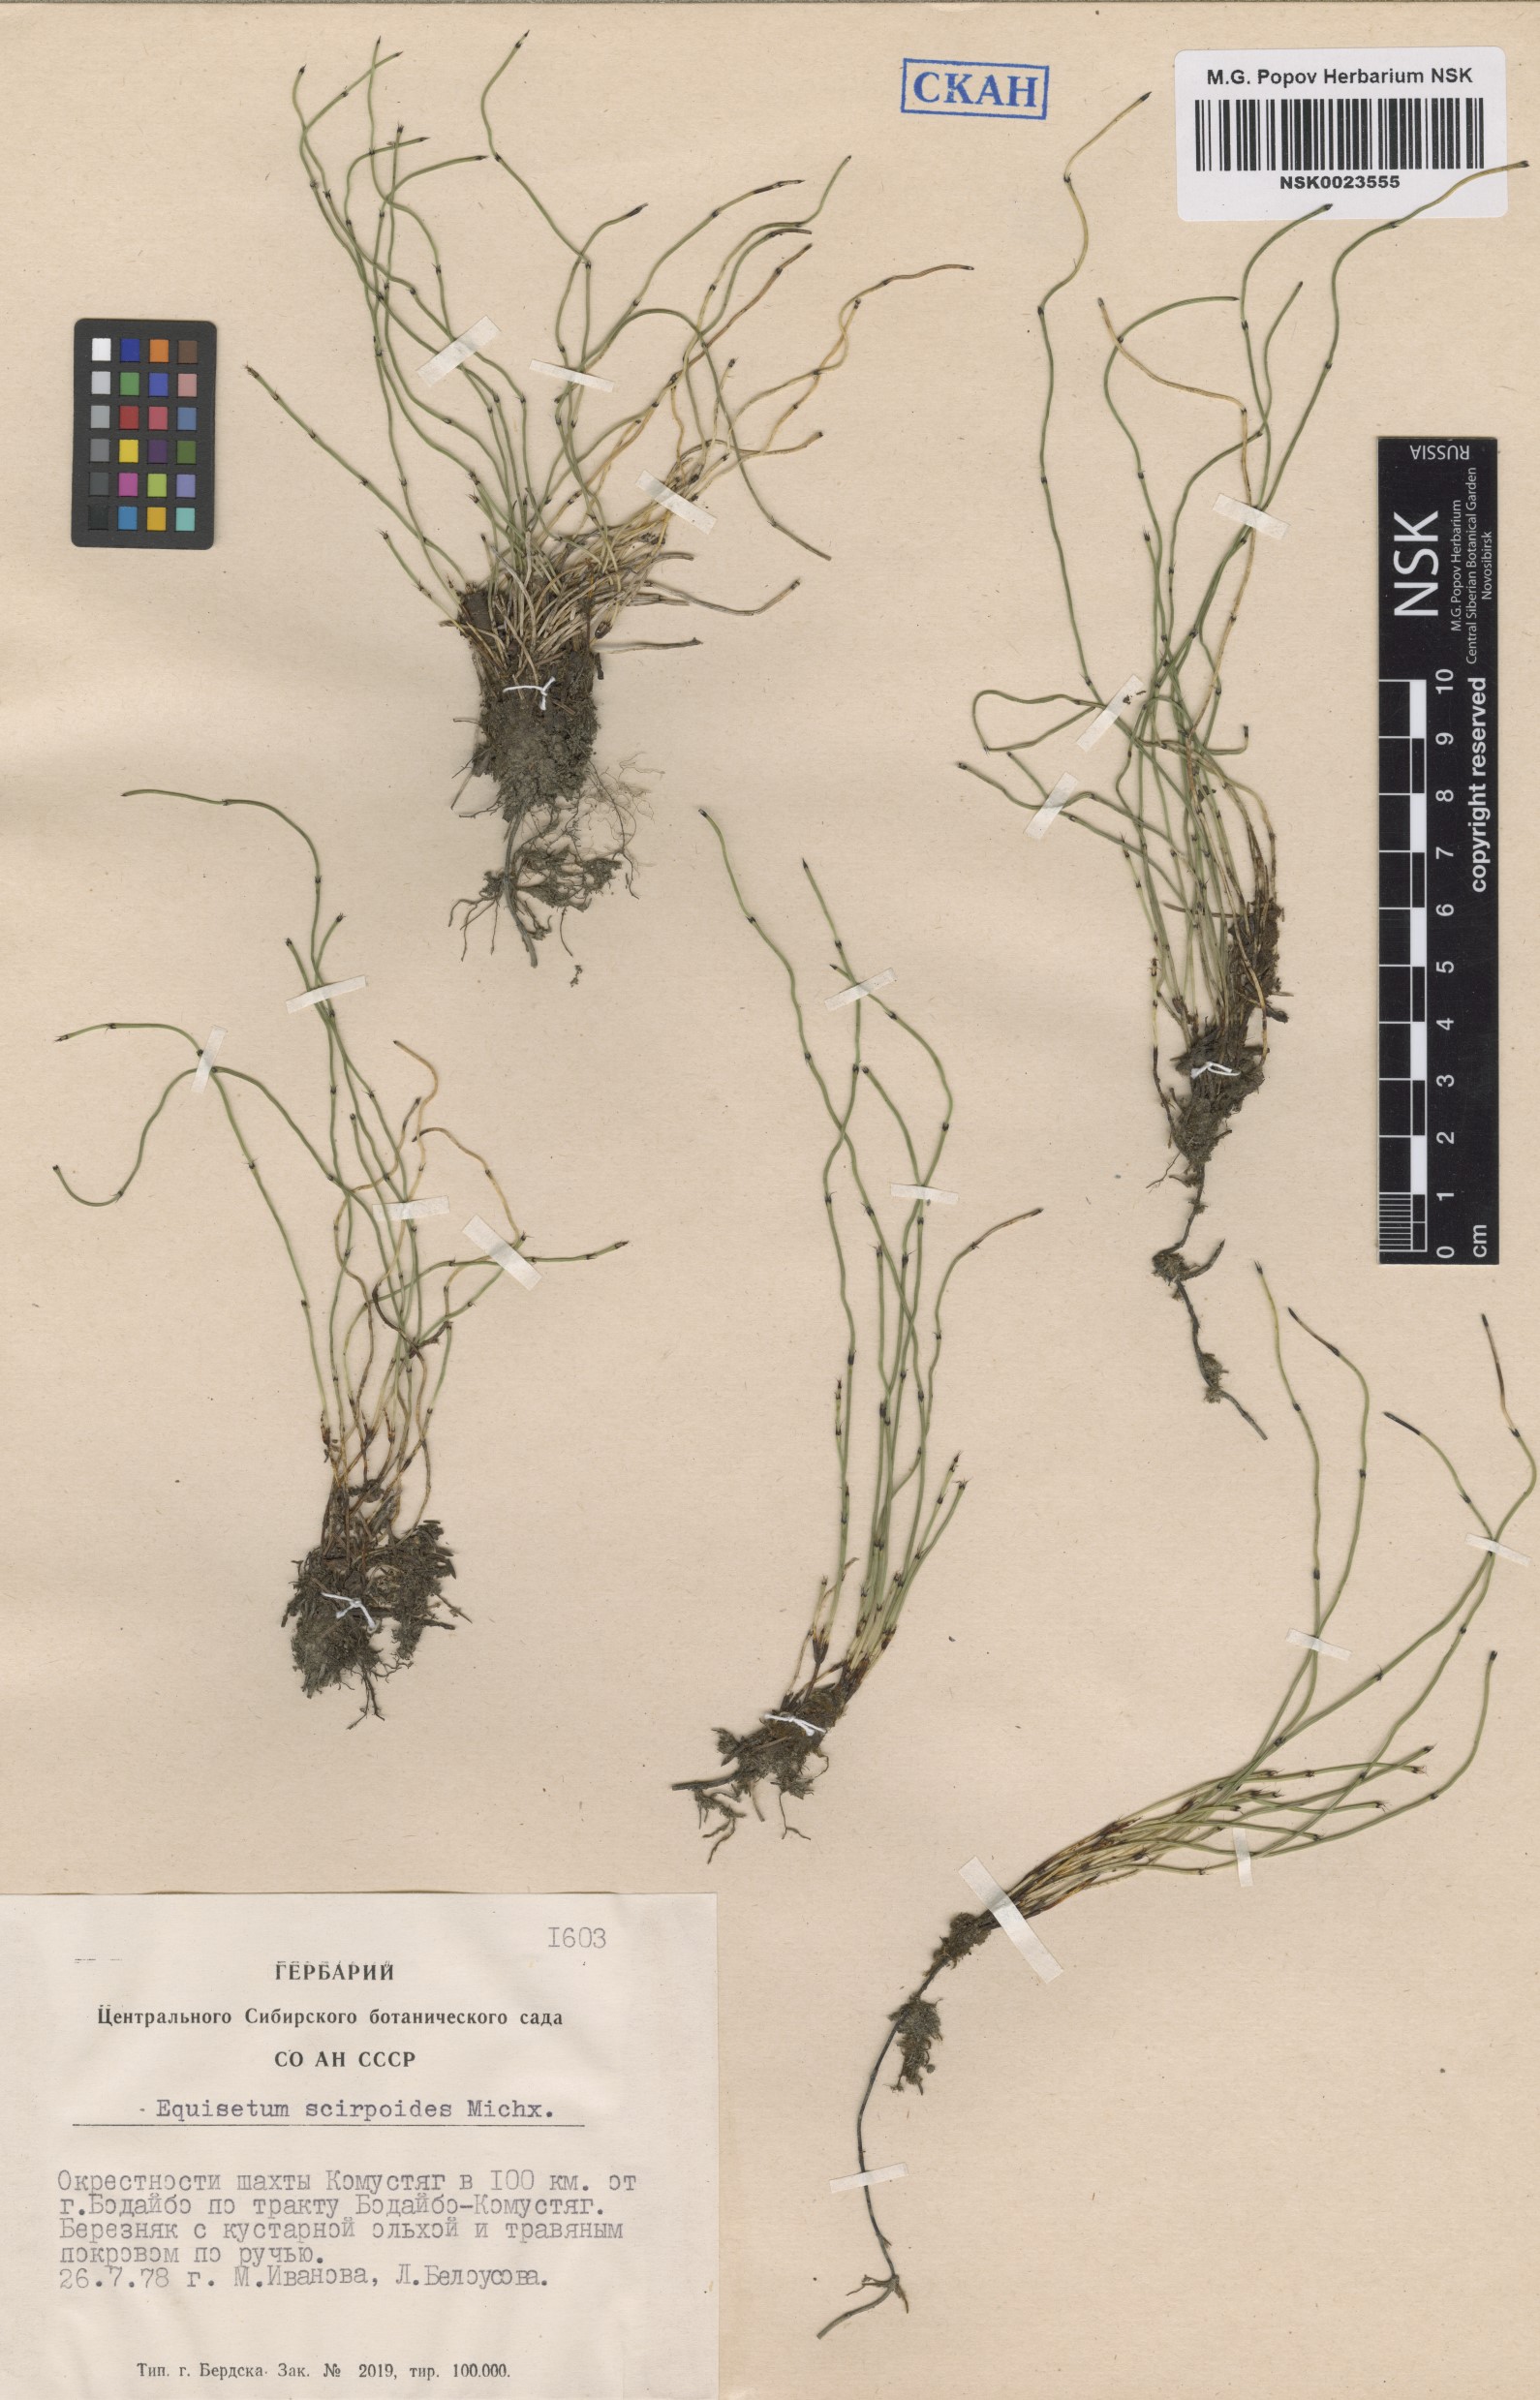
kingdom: Plantae
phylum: Tracheophyta
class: Polypodiopsida
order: Equisetales
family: Equisetaceae
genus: Equisetum
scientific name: Equisetum scirpoides
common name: Delicate horsetail
